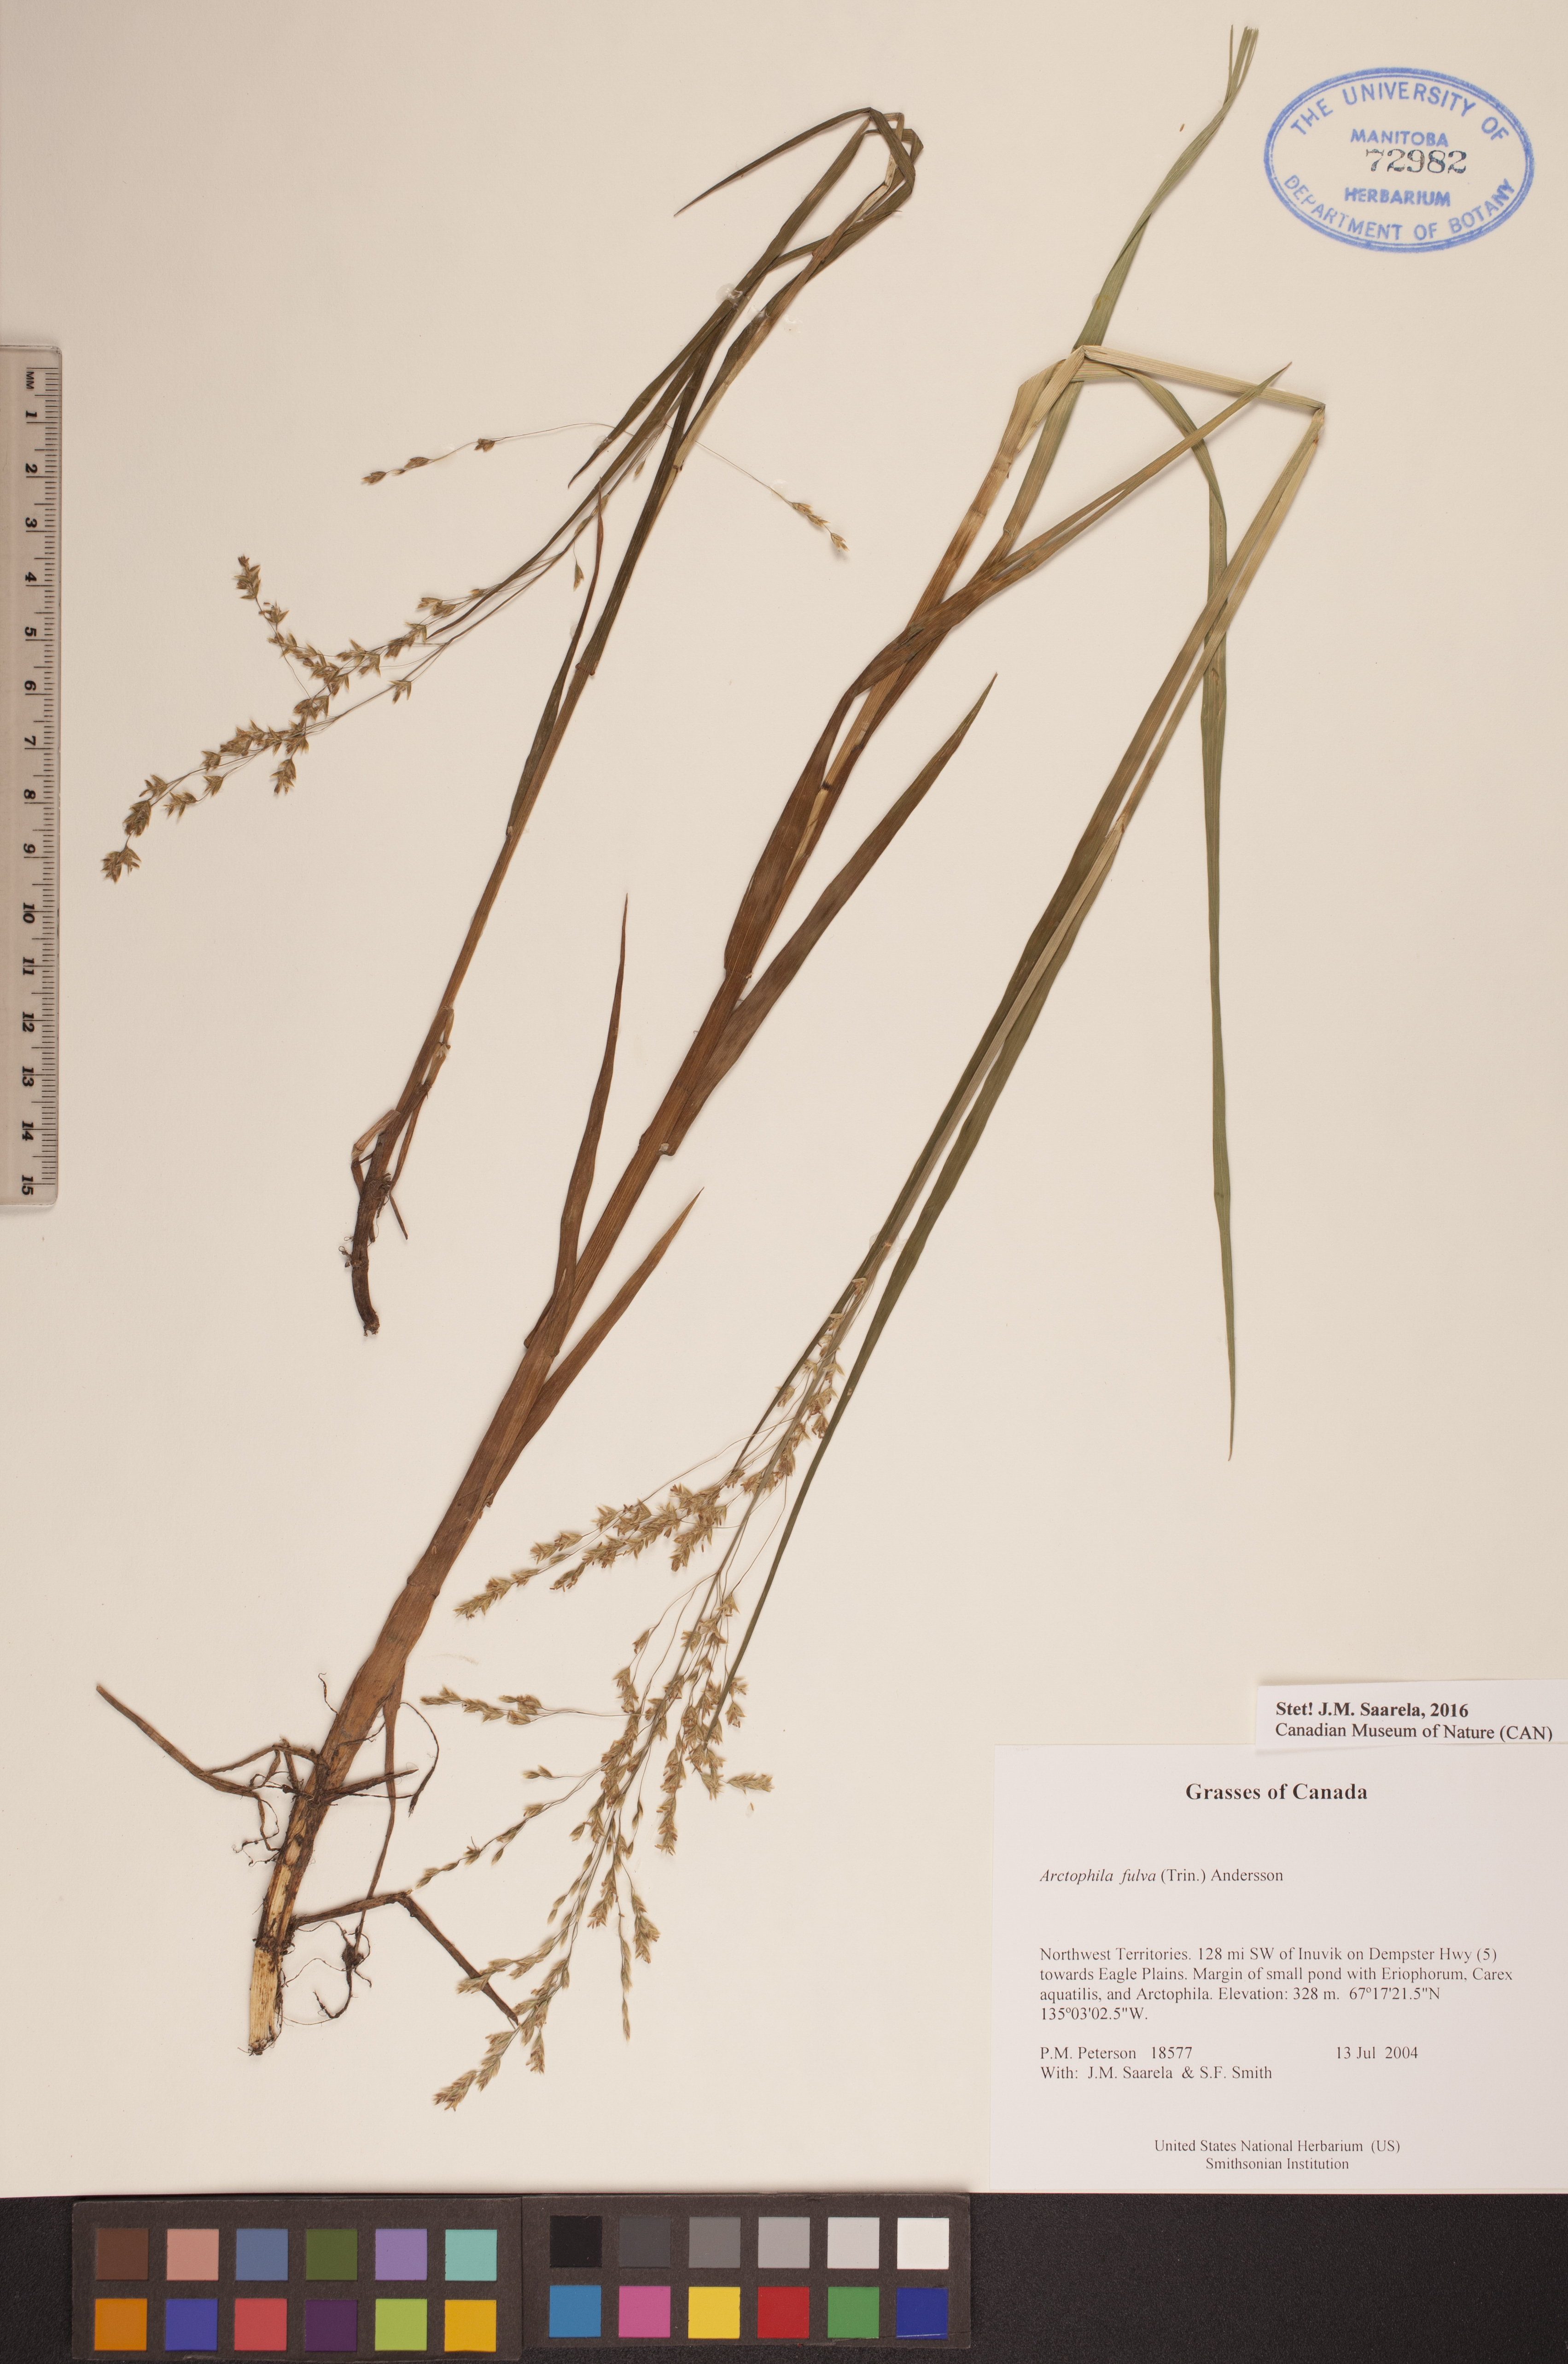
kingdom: Plantae
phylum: Tracheophyta
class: Liliopsida
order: Poales
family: Poaceae
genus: Dupontia
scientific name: Dupontia fulva
